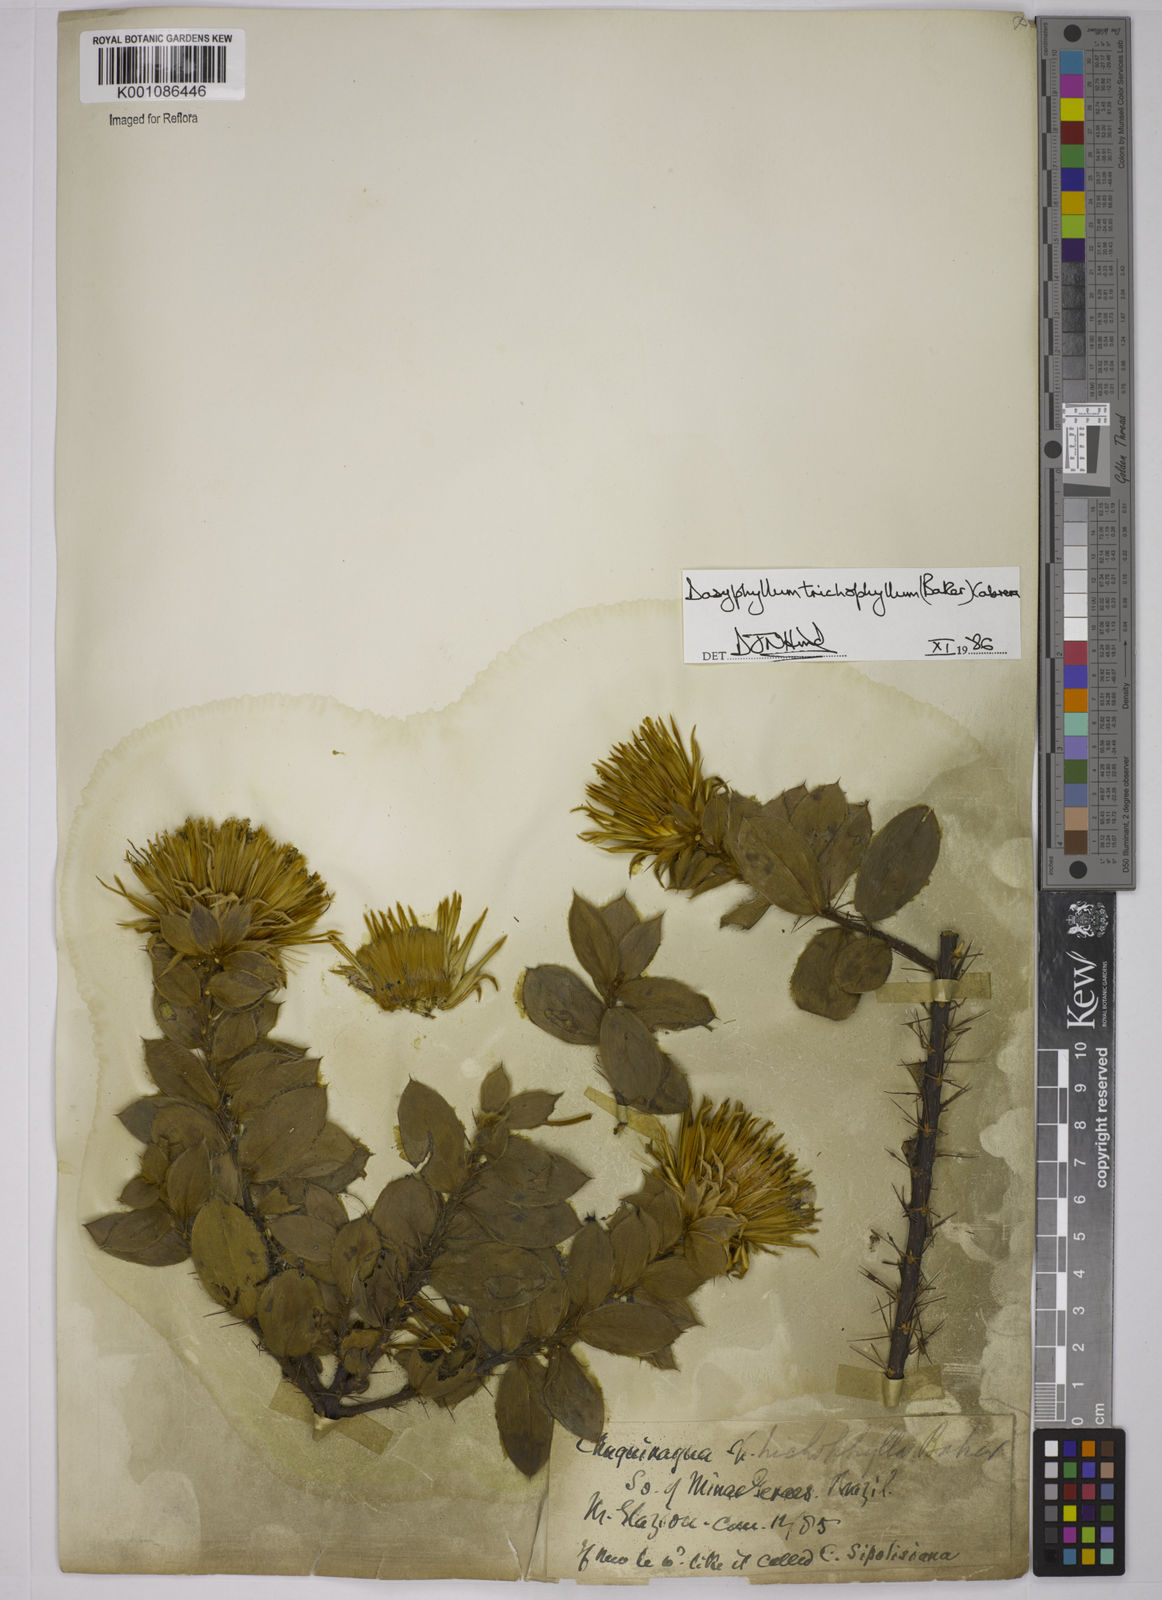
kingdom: Plantae
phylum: Tracheophyta
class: Magnoliopsida
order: Asterales
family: Asteraceae
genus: Dasyphyllum
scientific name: Dasyphyllum trichophyllum
